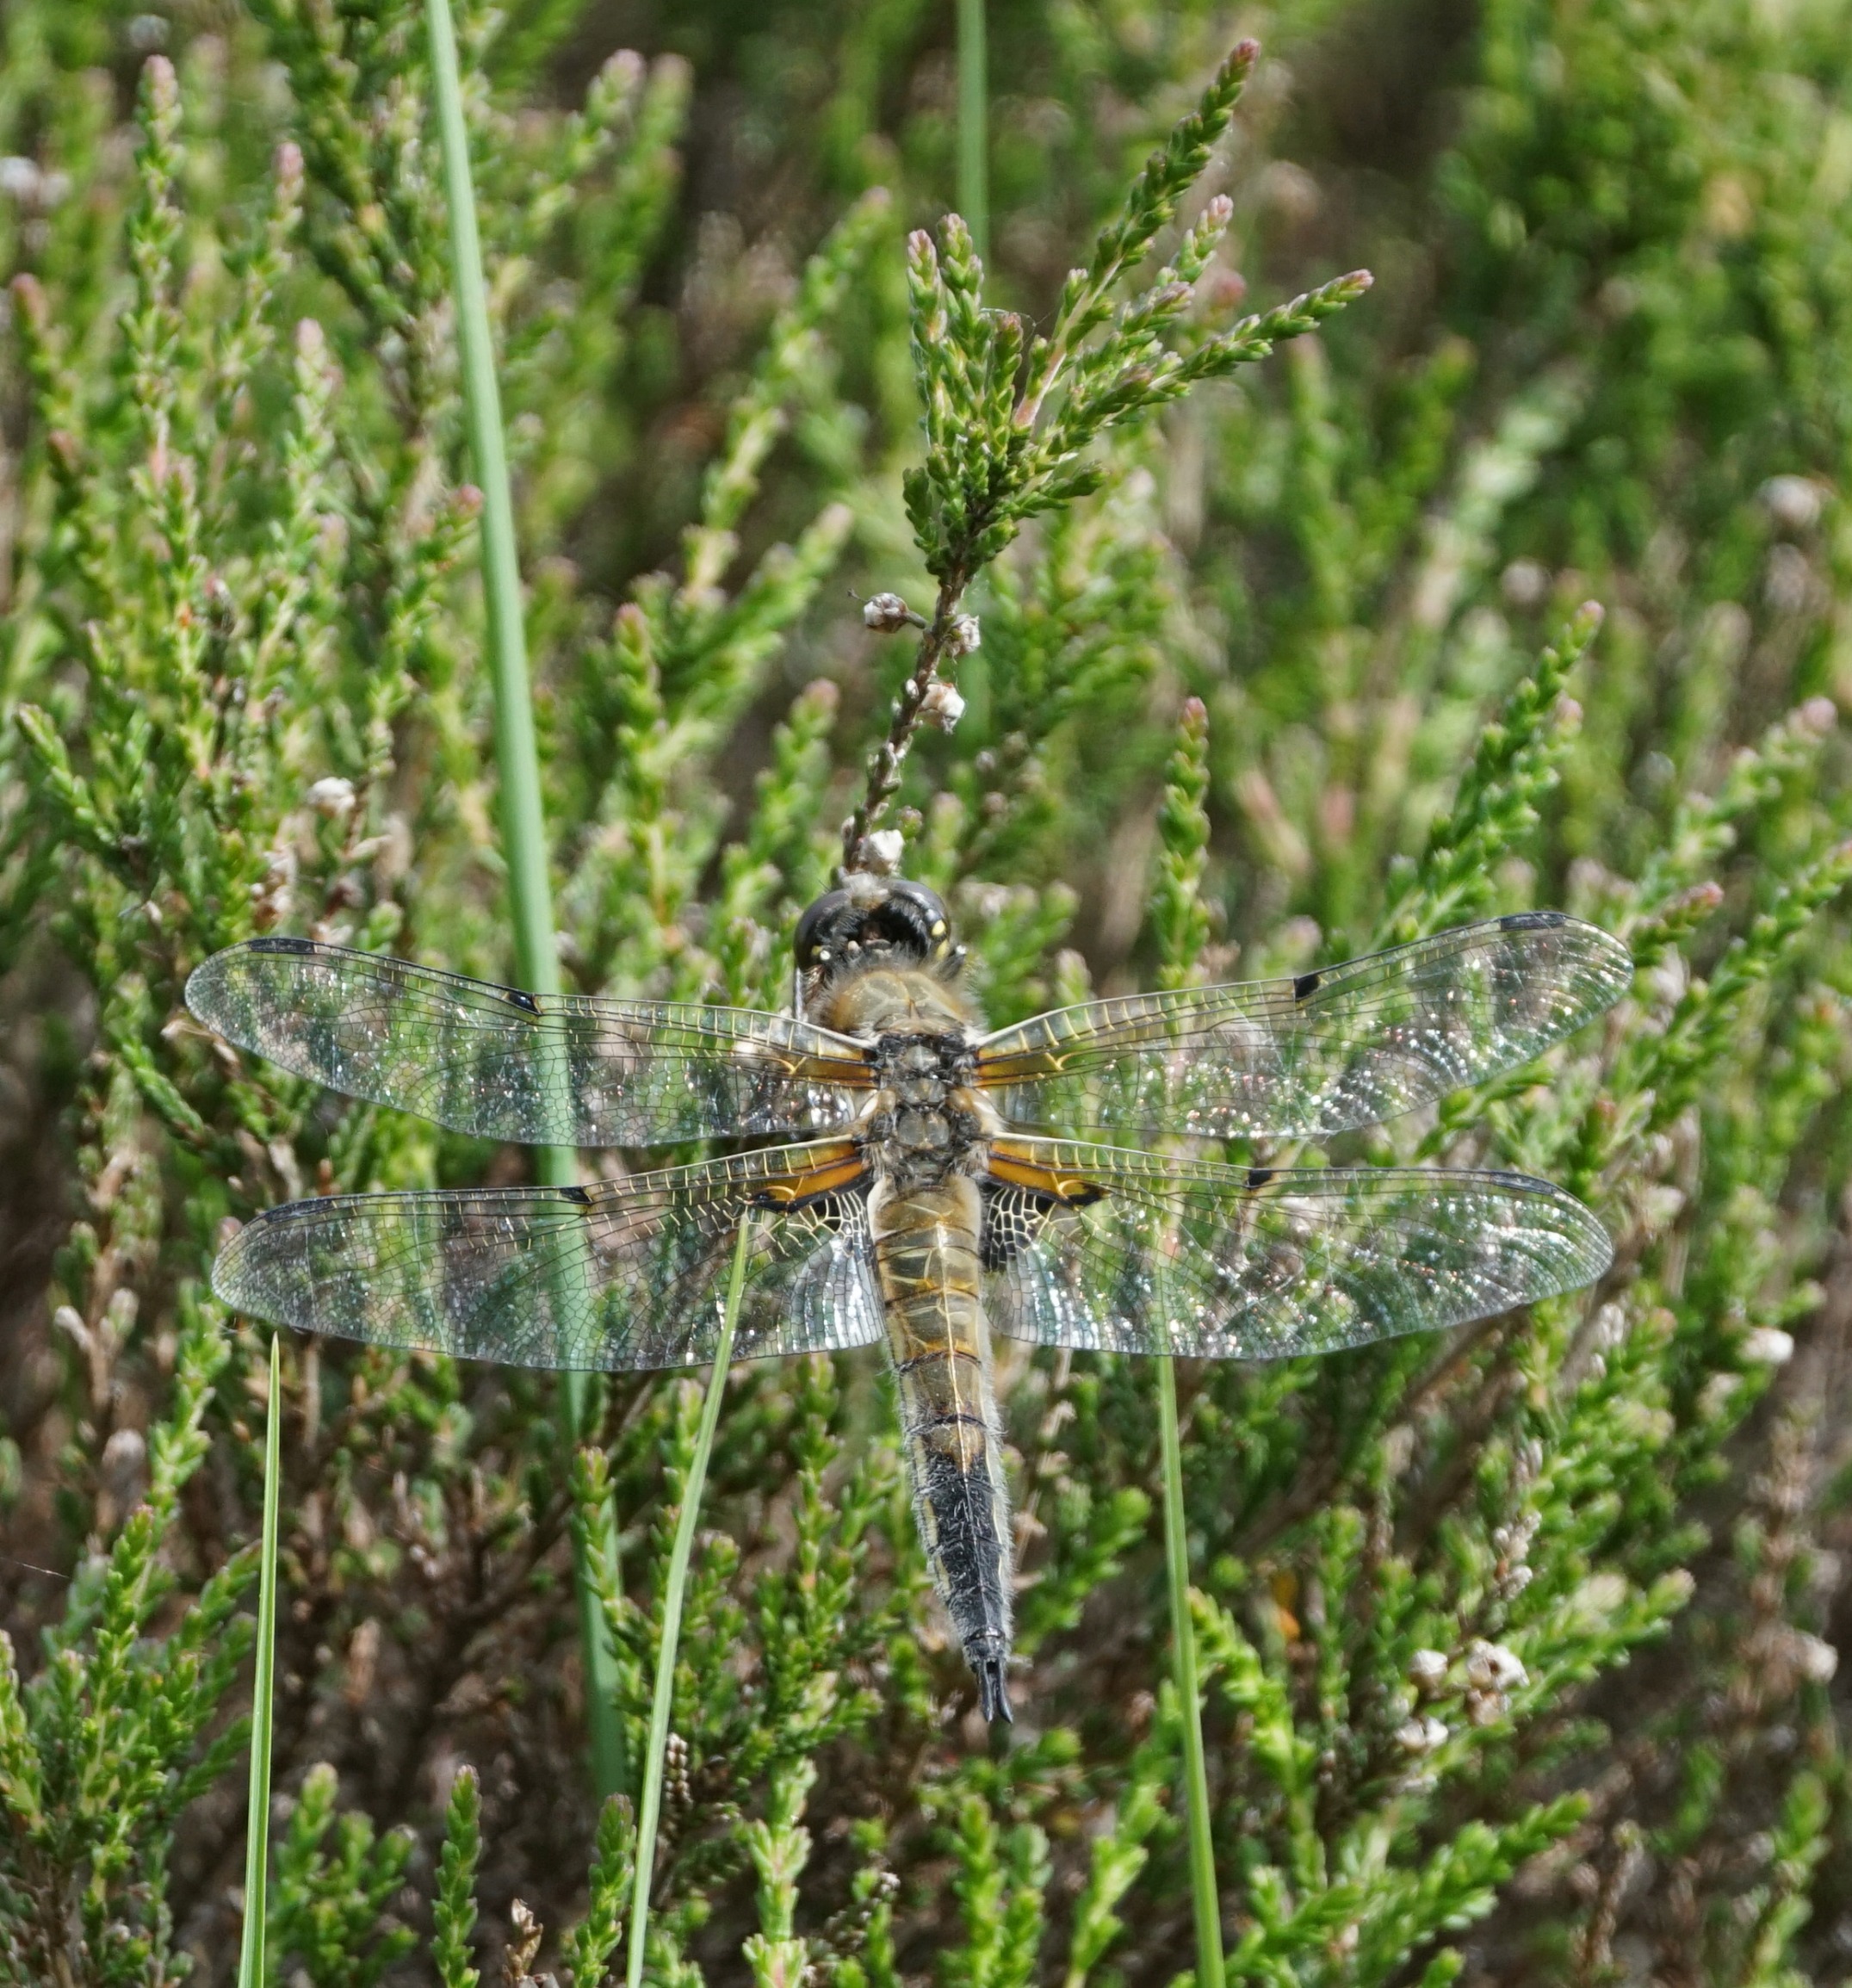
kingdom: Animalia
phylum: Arthropoda
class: Insecta
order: Odonata
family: Libellulidae
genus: Libellula
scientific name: Libellula quadrimaculata
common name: Fireplettet libel
